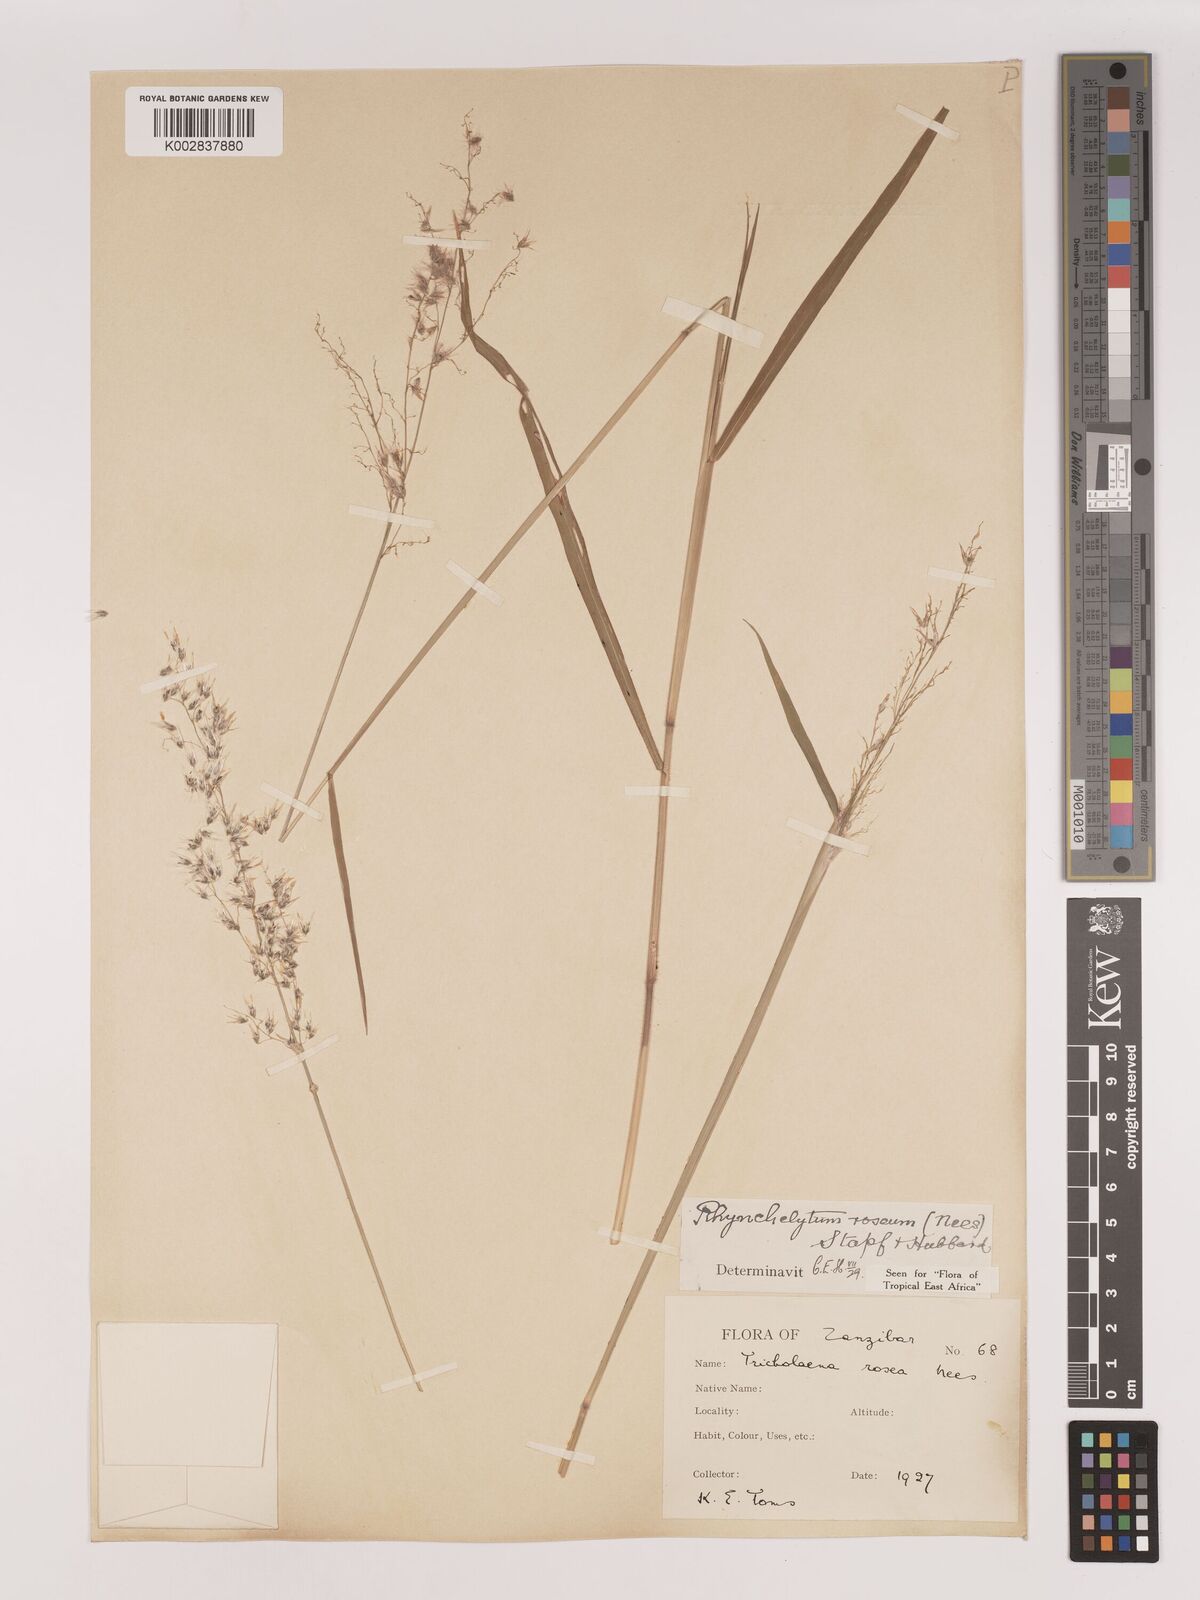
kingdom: Plantae
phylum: Tracheophyta
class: Liliopsida
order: Poales
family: Poaceae
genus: Melinis
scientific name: Melinis repens
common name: Rose natal grass
